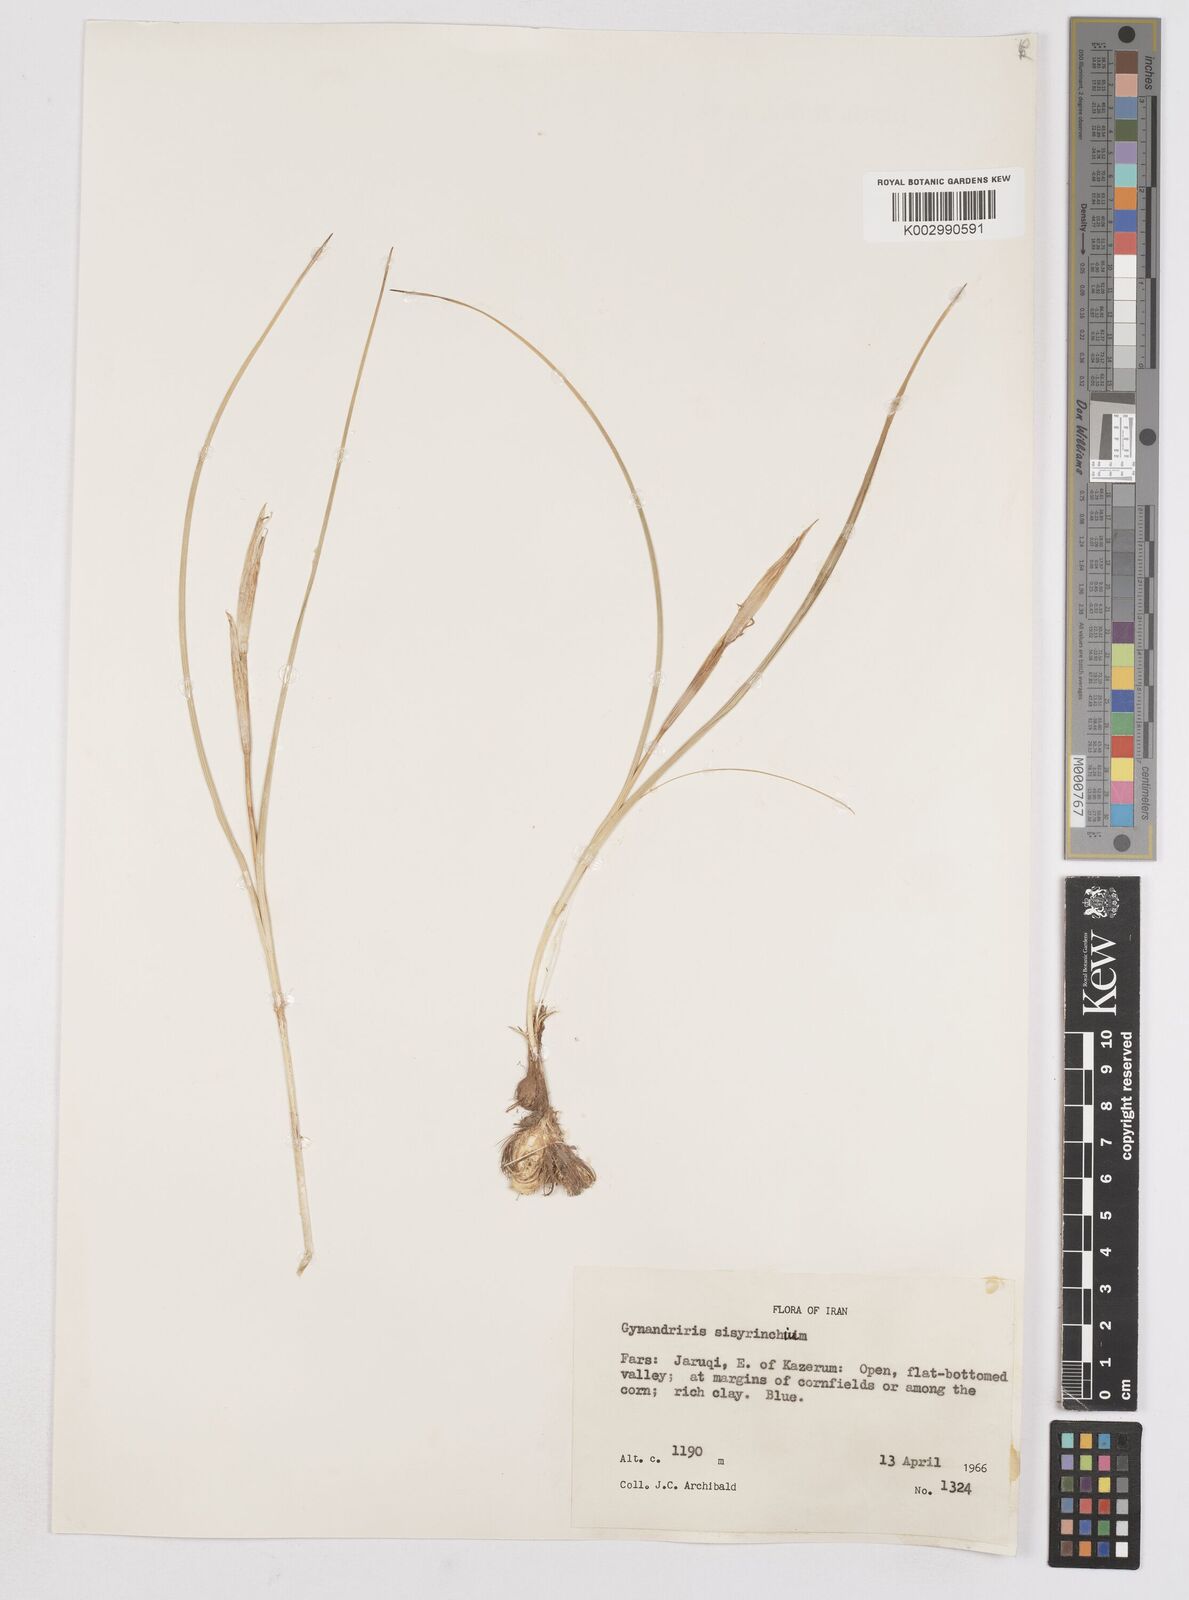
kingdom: Plantae
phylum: Tracheophyta
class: Liliopsida
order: Asparagales
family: Iridaceae
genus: Moraea
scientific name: Moraea sisyrinchium
